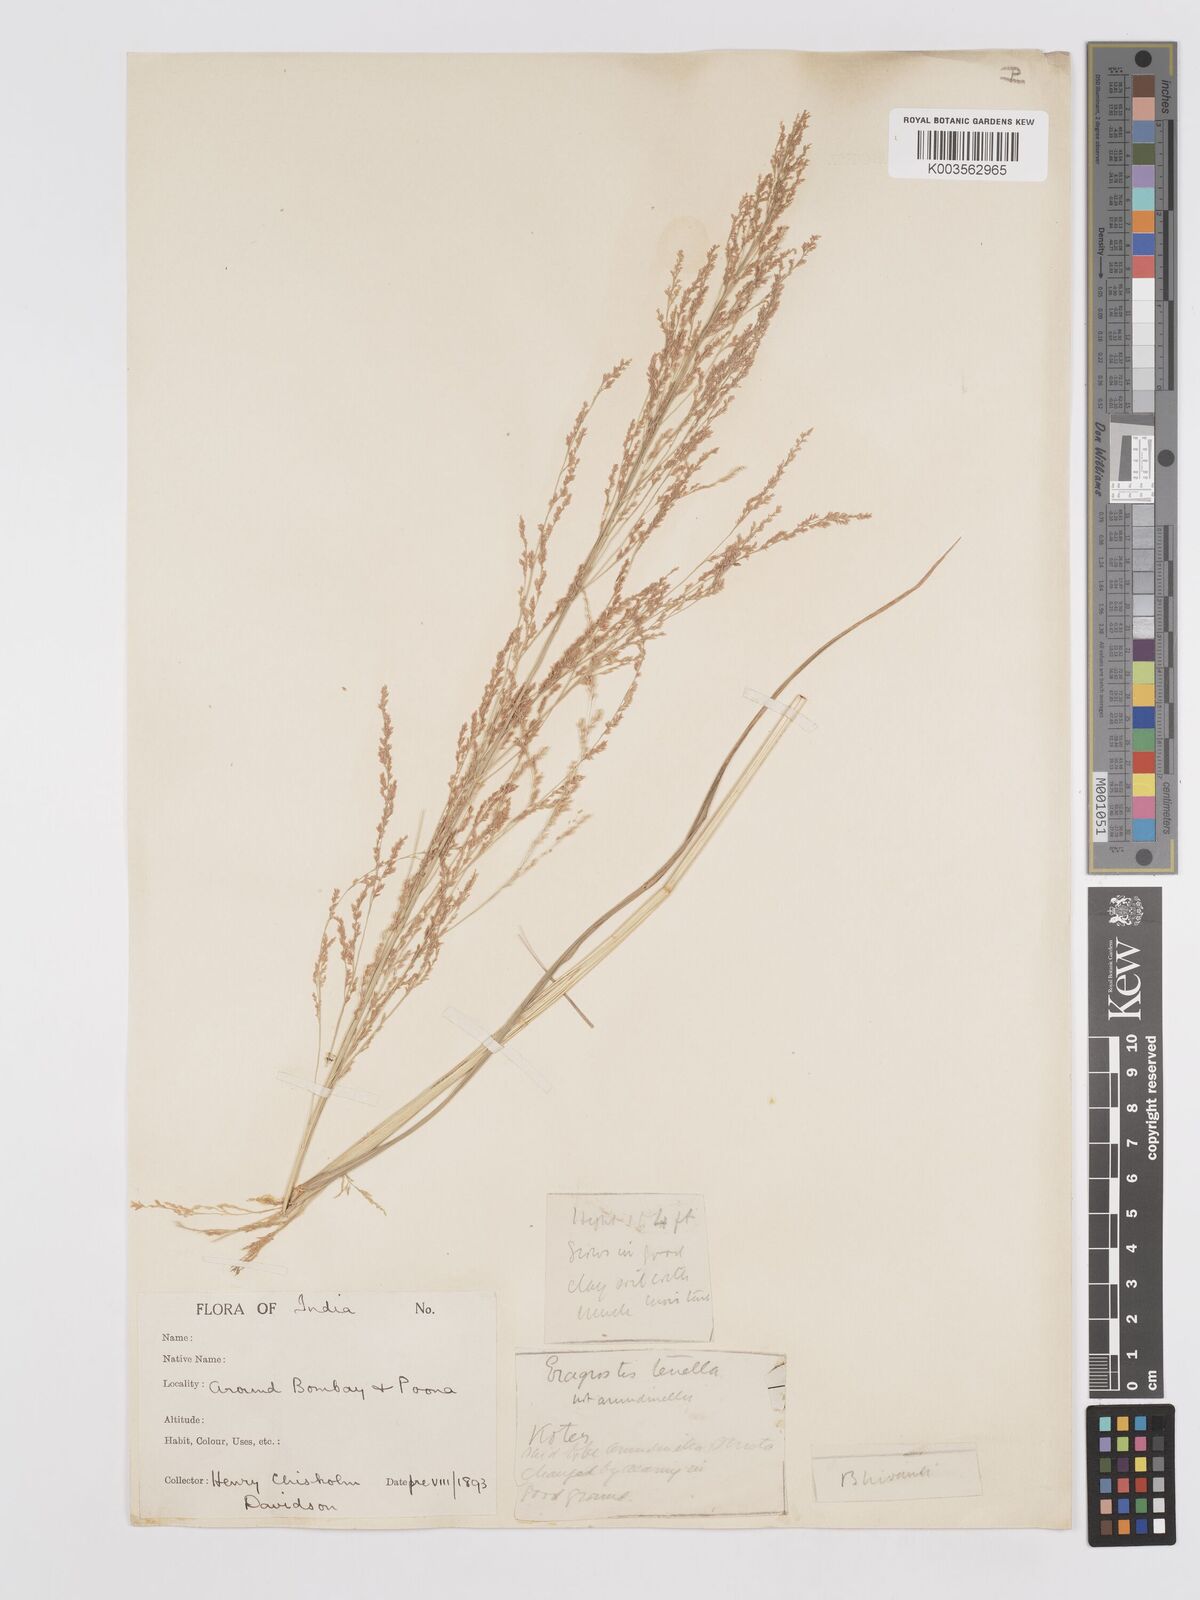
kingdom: Plantae
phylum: Tracheophyta
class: Liliopsida
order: Poales
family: Poaceae
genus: Eragrostis
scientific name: Eragrostis japonica
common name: Pond lovegrass
